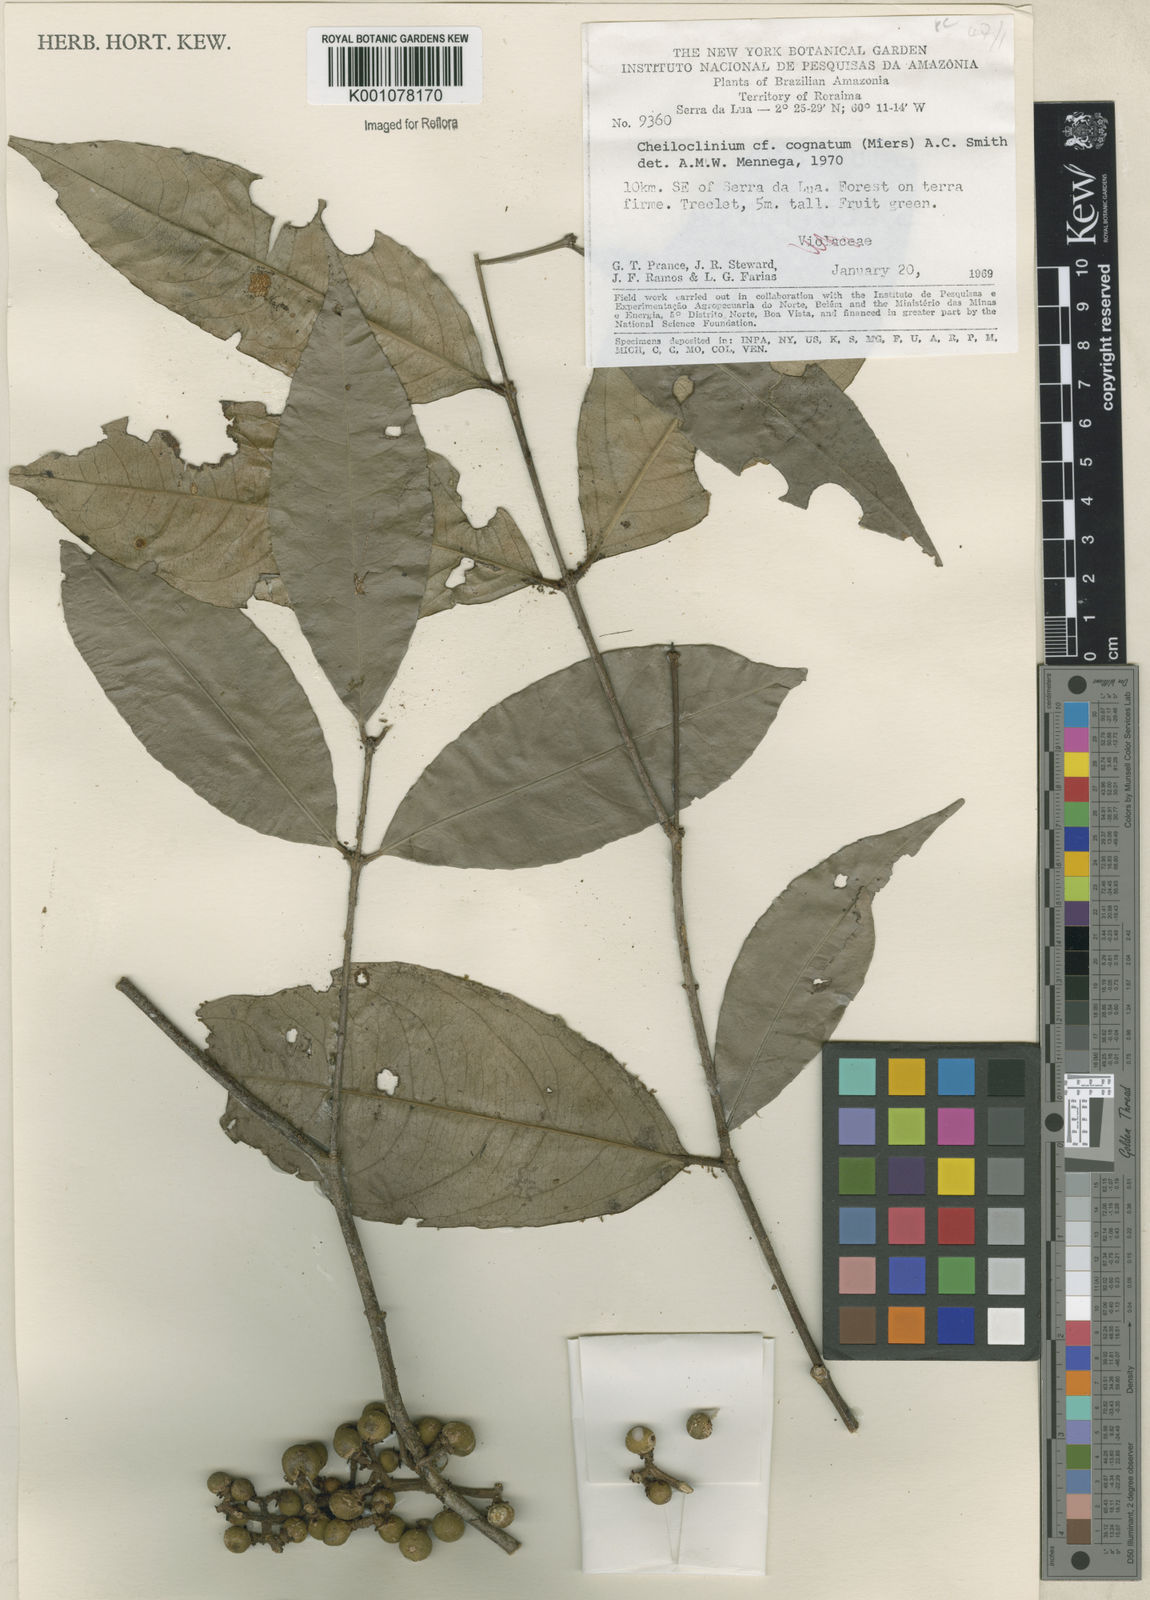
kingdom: Plantae
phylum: Tracheophyta
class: Magnoliopsida
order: Celastrales
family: Celastraceae
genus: Cheiloclinium
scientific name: Cheiloclinium cognatum
